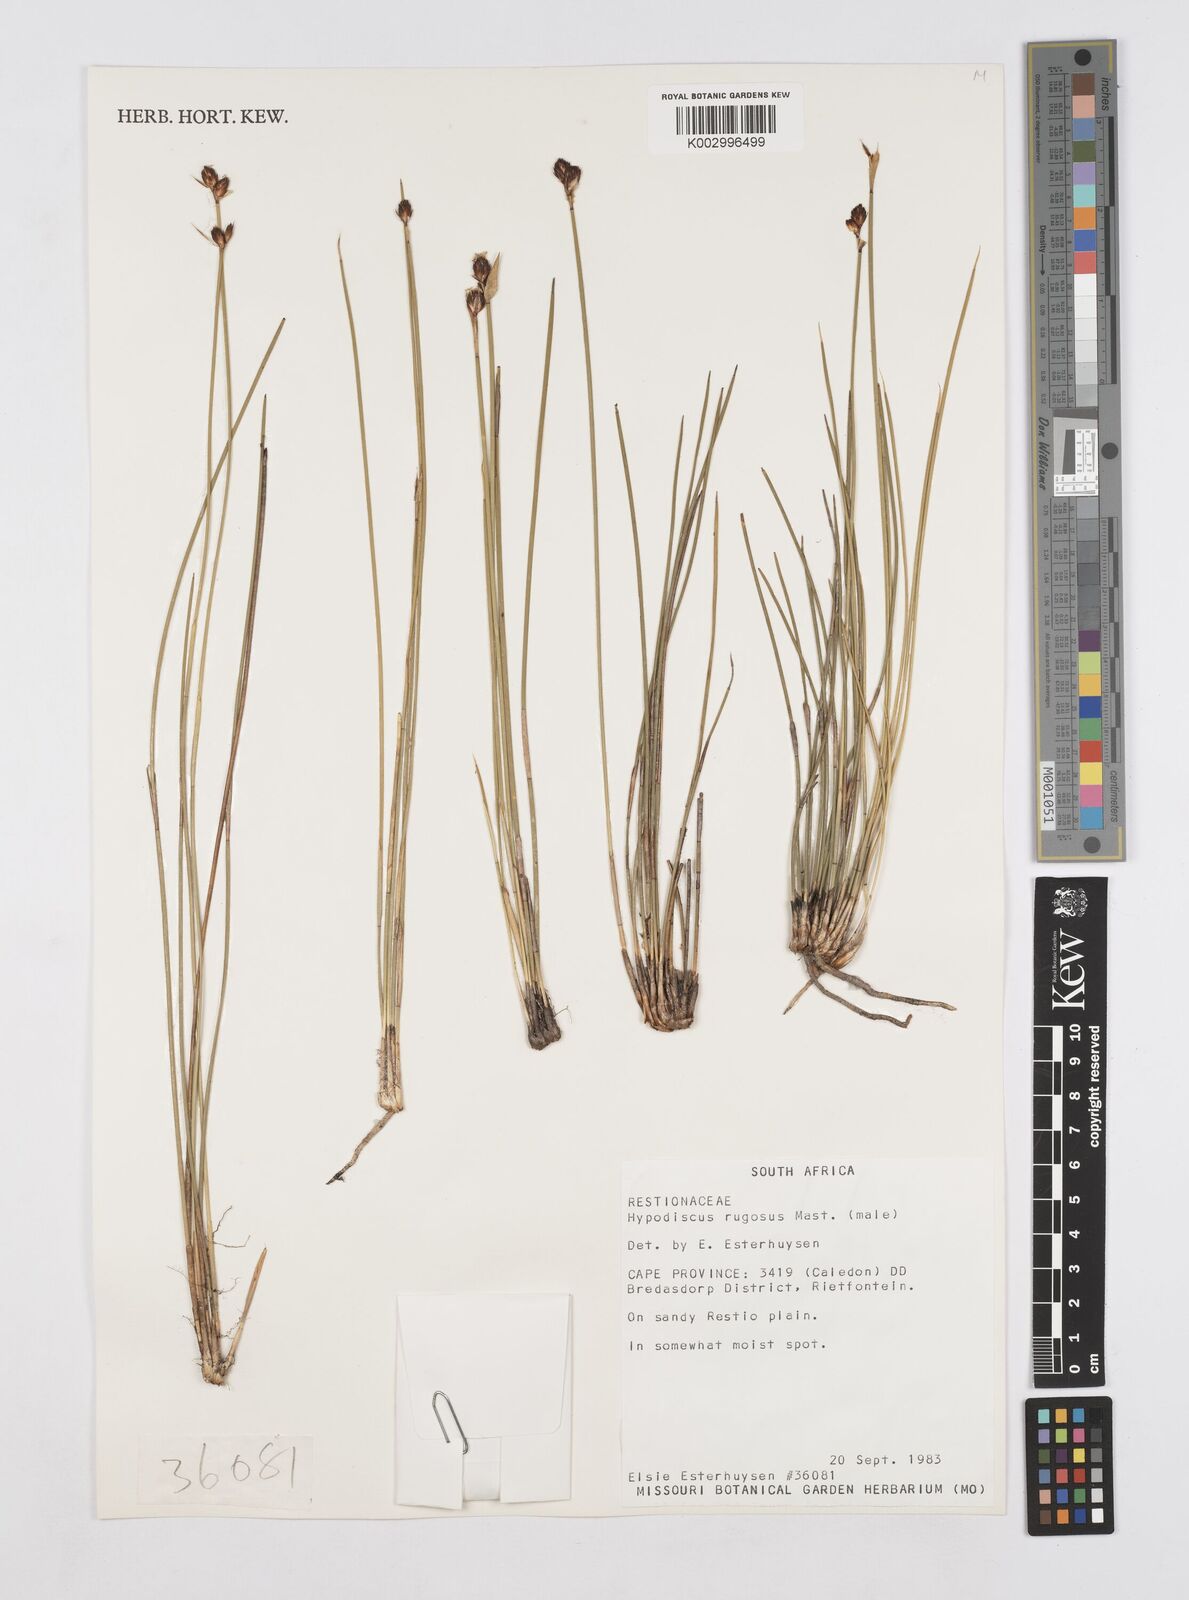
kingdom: Plantae
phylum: Tracheophyta
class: Liliopsida
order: Poales
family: Restionaceae
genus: Hypodiscus
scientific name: Hypodiscus rugosus
